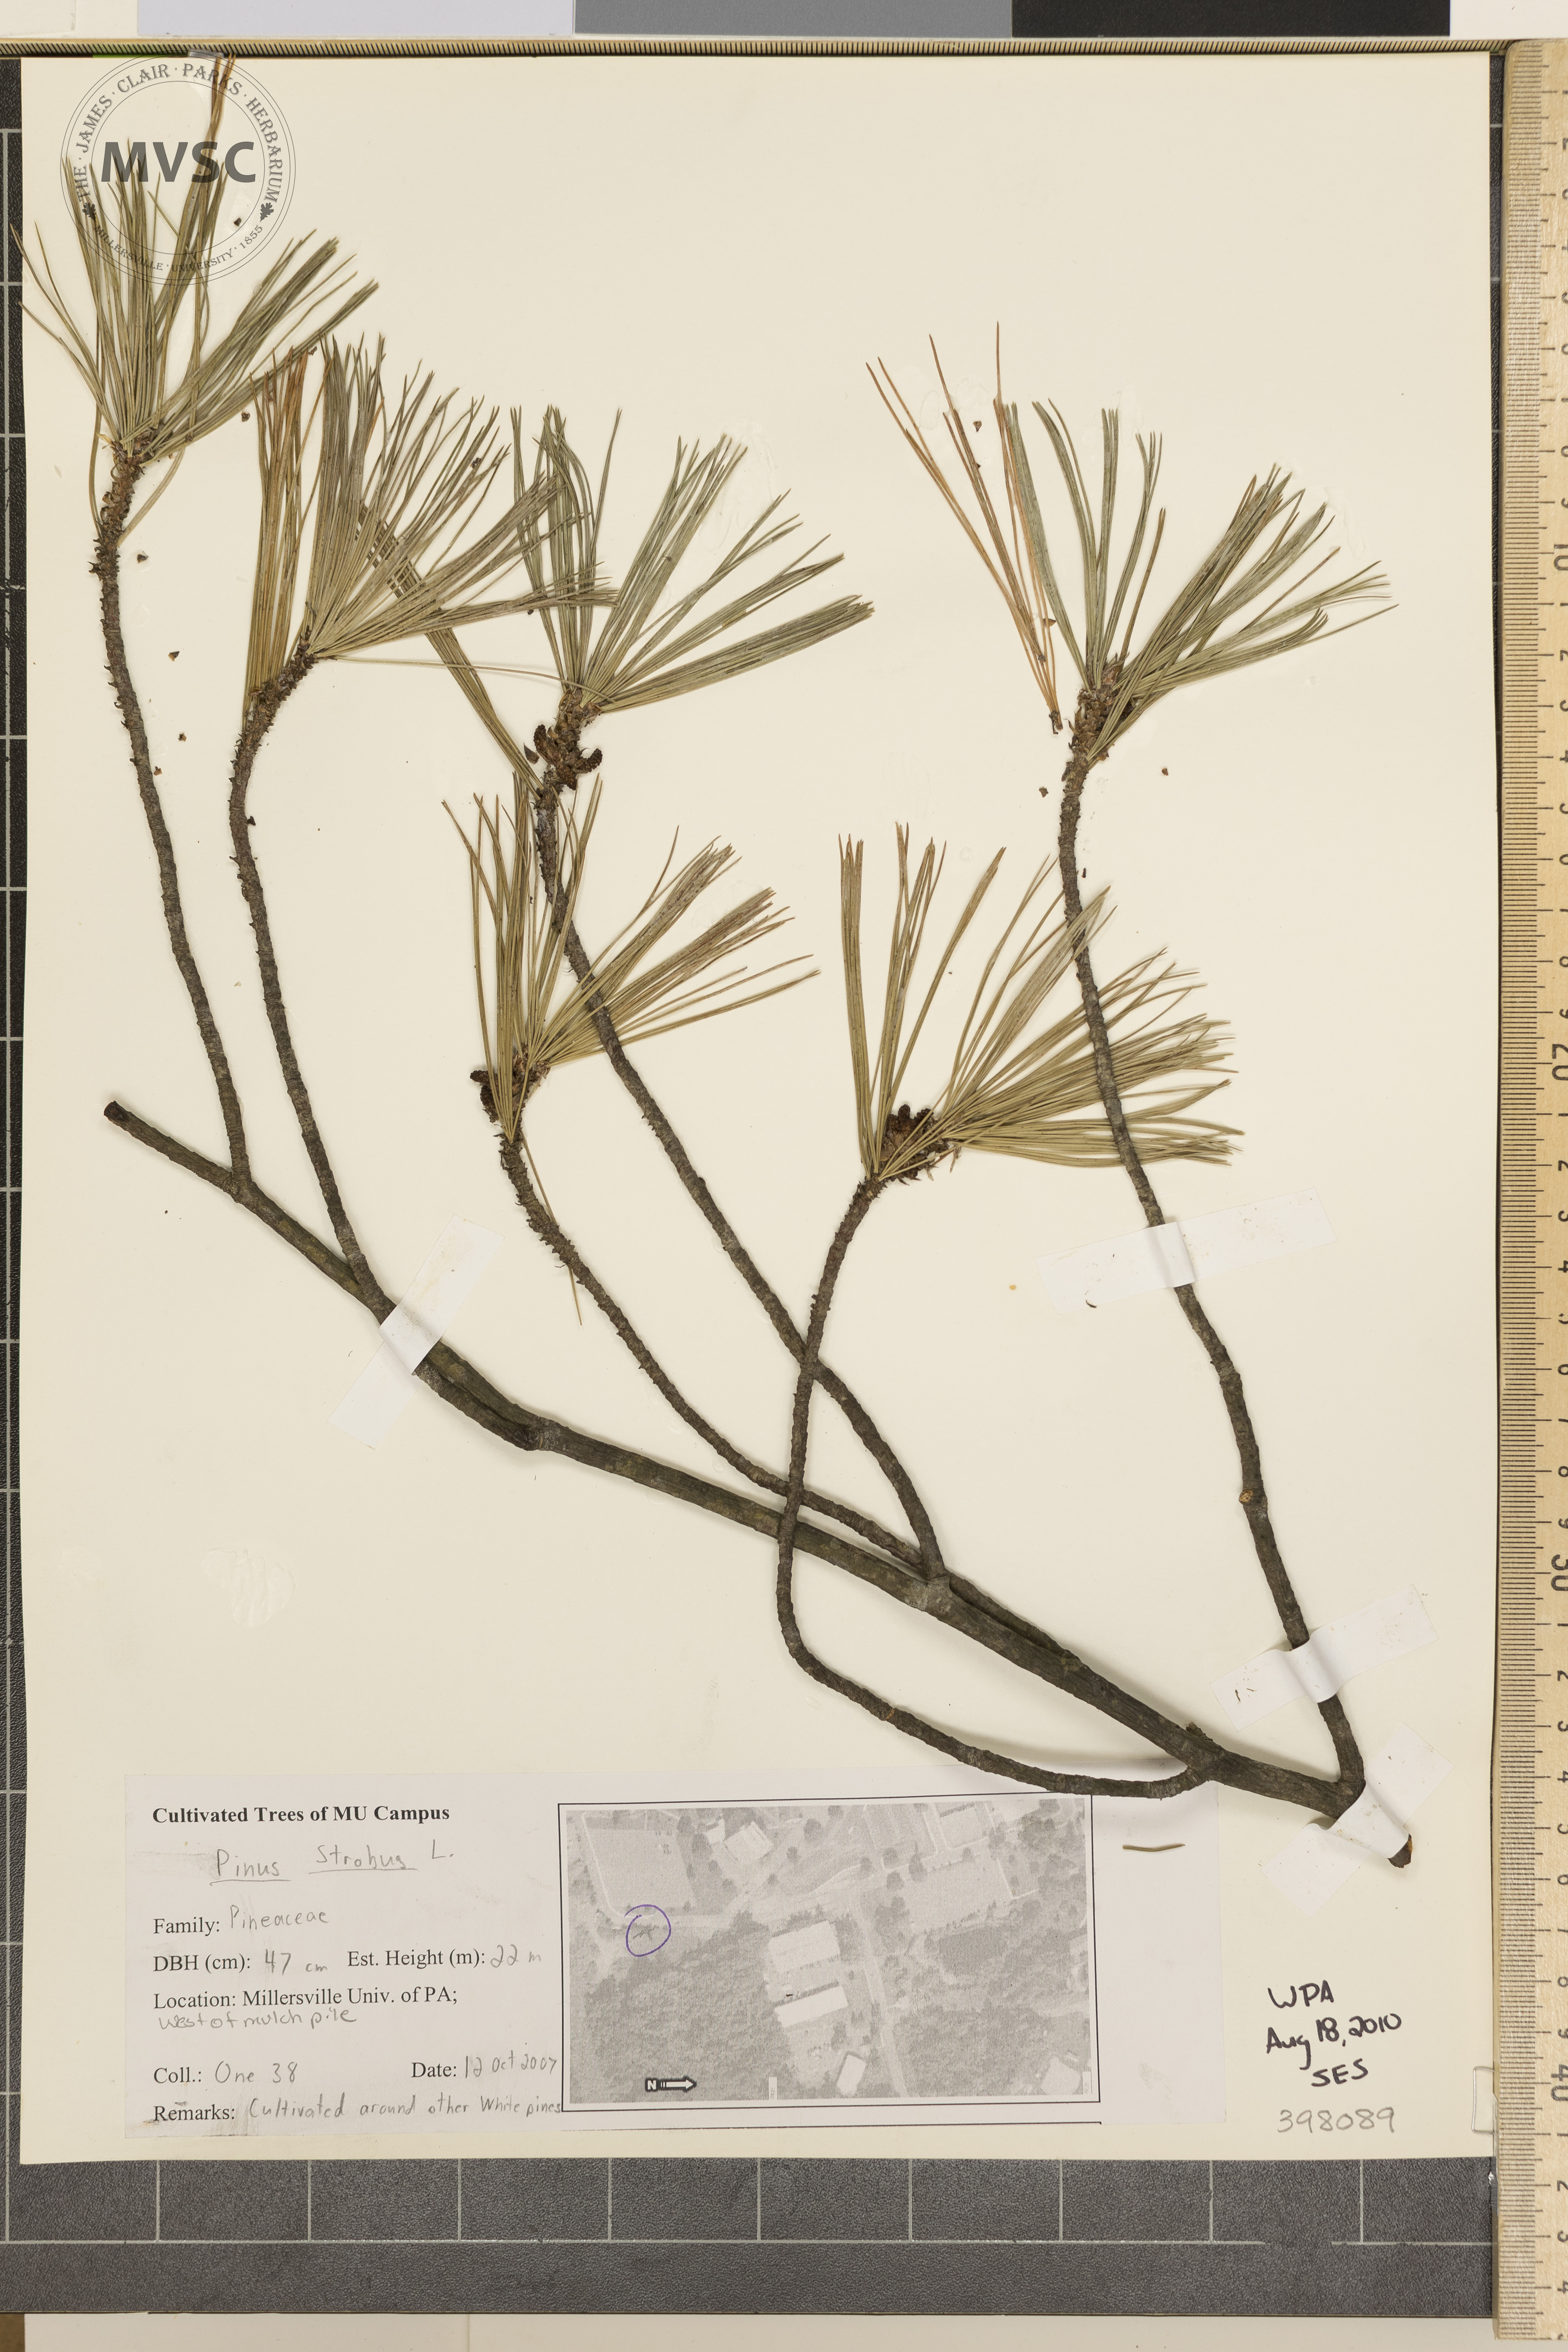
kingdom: Plantae
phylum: Tracheophyta
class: Pinopsida
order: Pinales
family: Pinaceae
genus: Pinus
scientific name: Pinus strobus
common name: Eastern white pine
